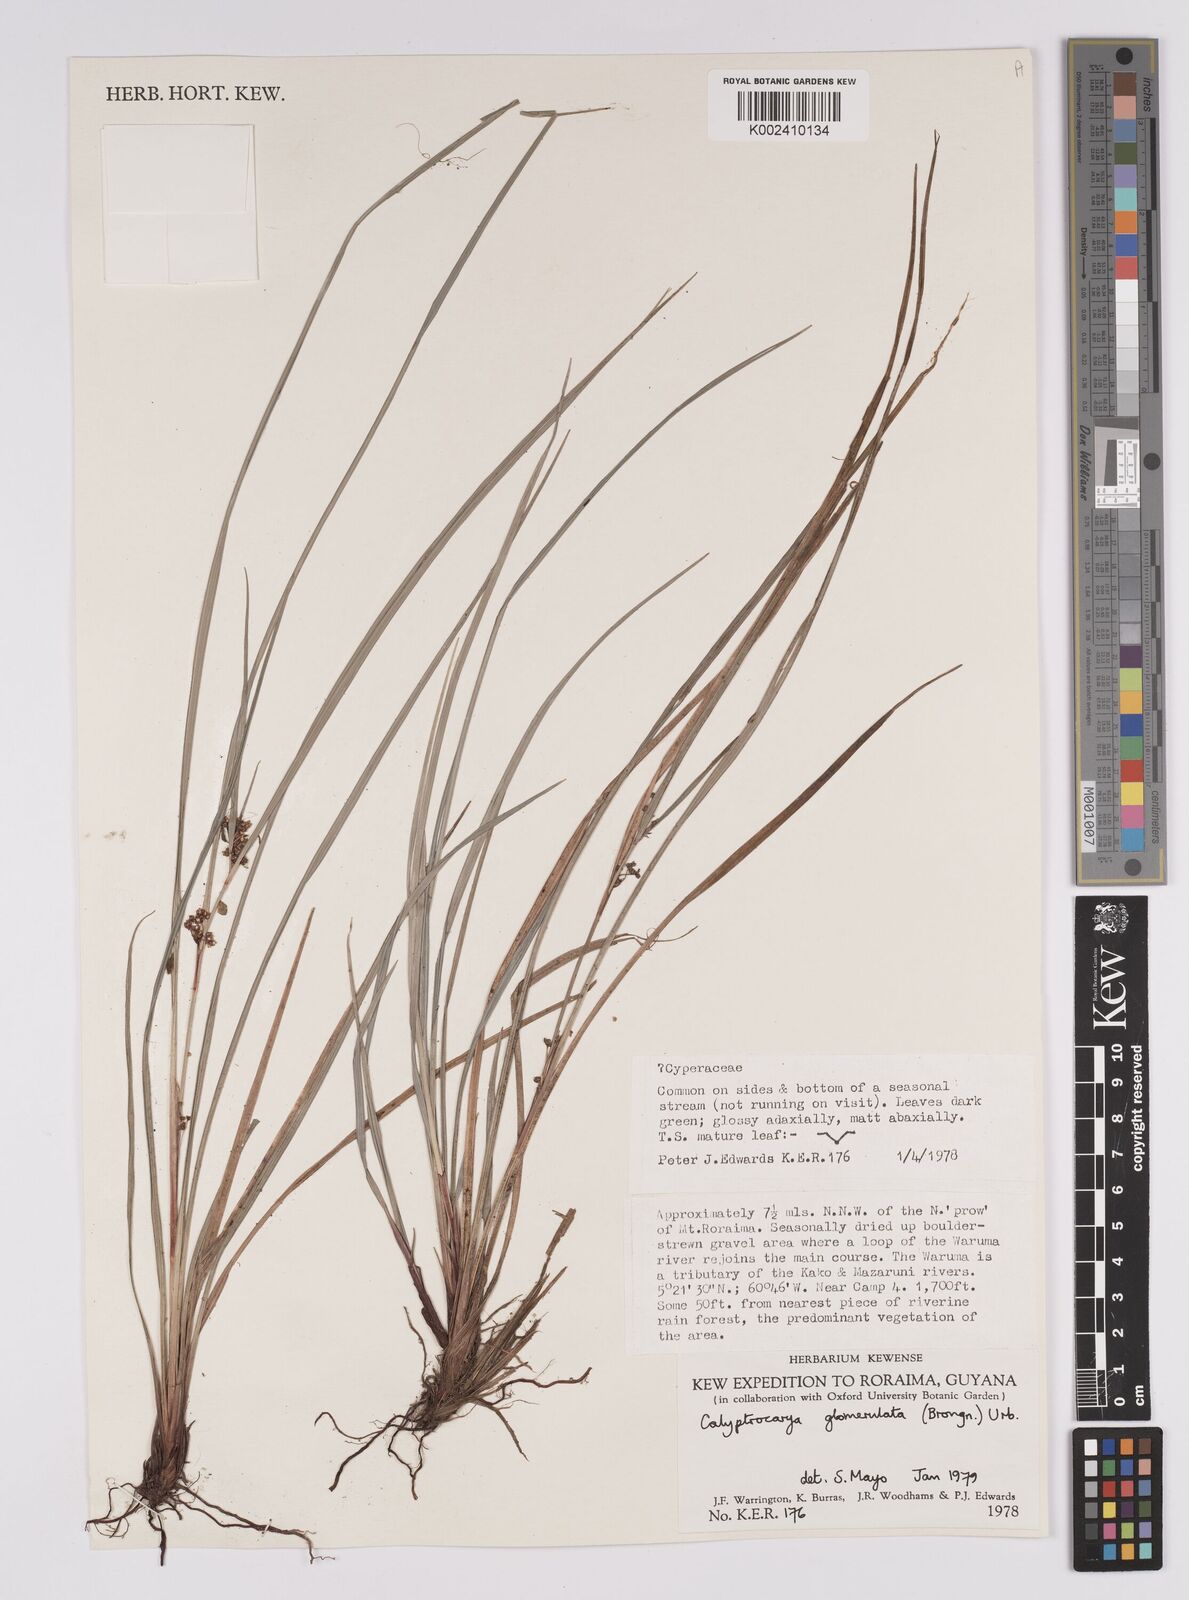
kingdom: Plantae
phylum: Tracheophyta
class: Liliopsida
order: Poales
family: Cyperaceae
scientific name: Cyperaceae
